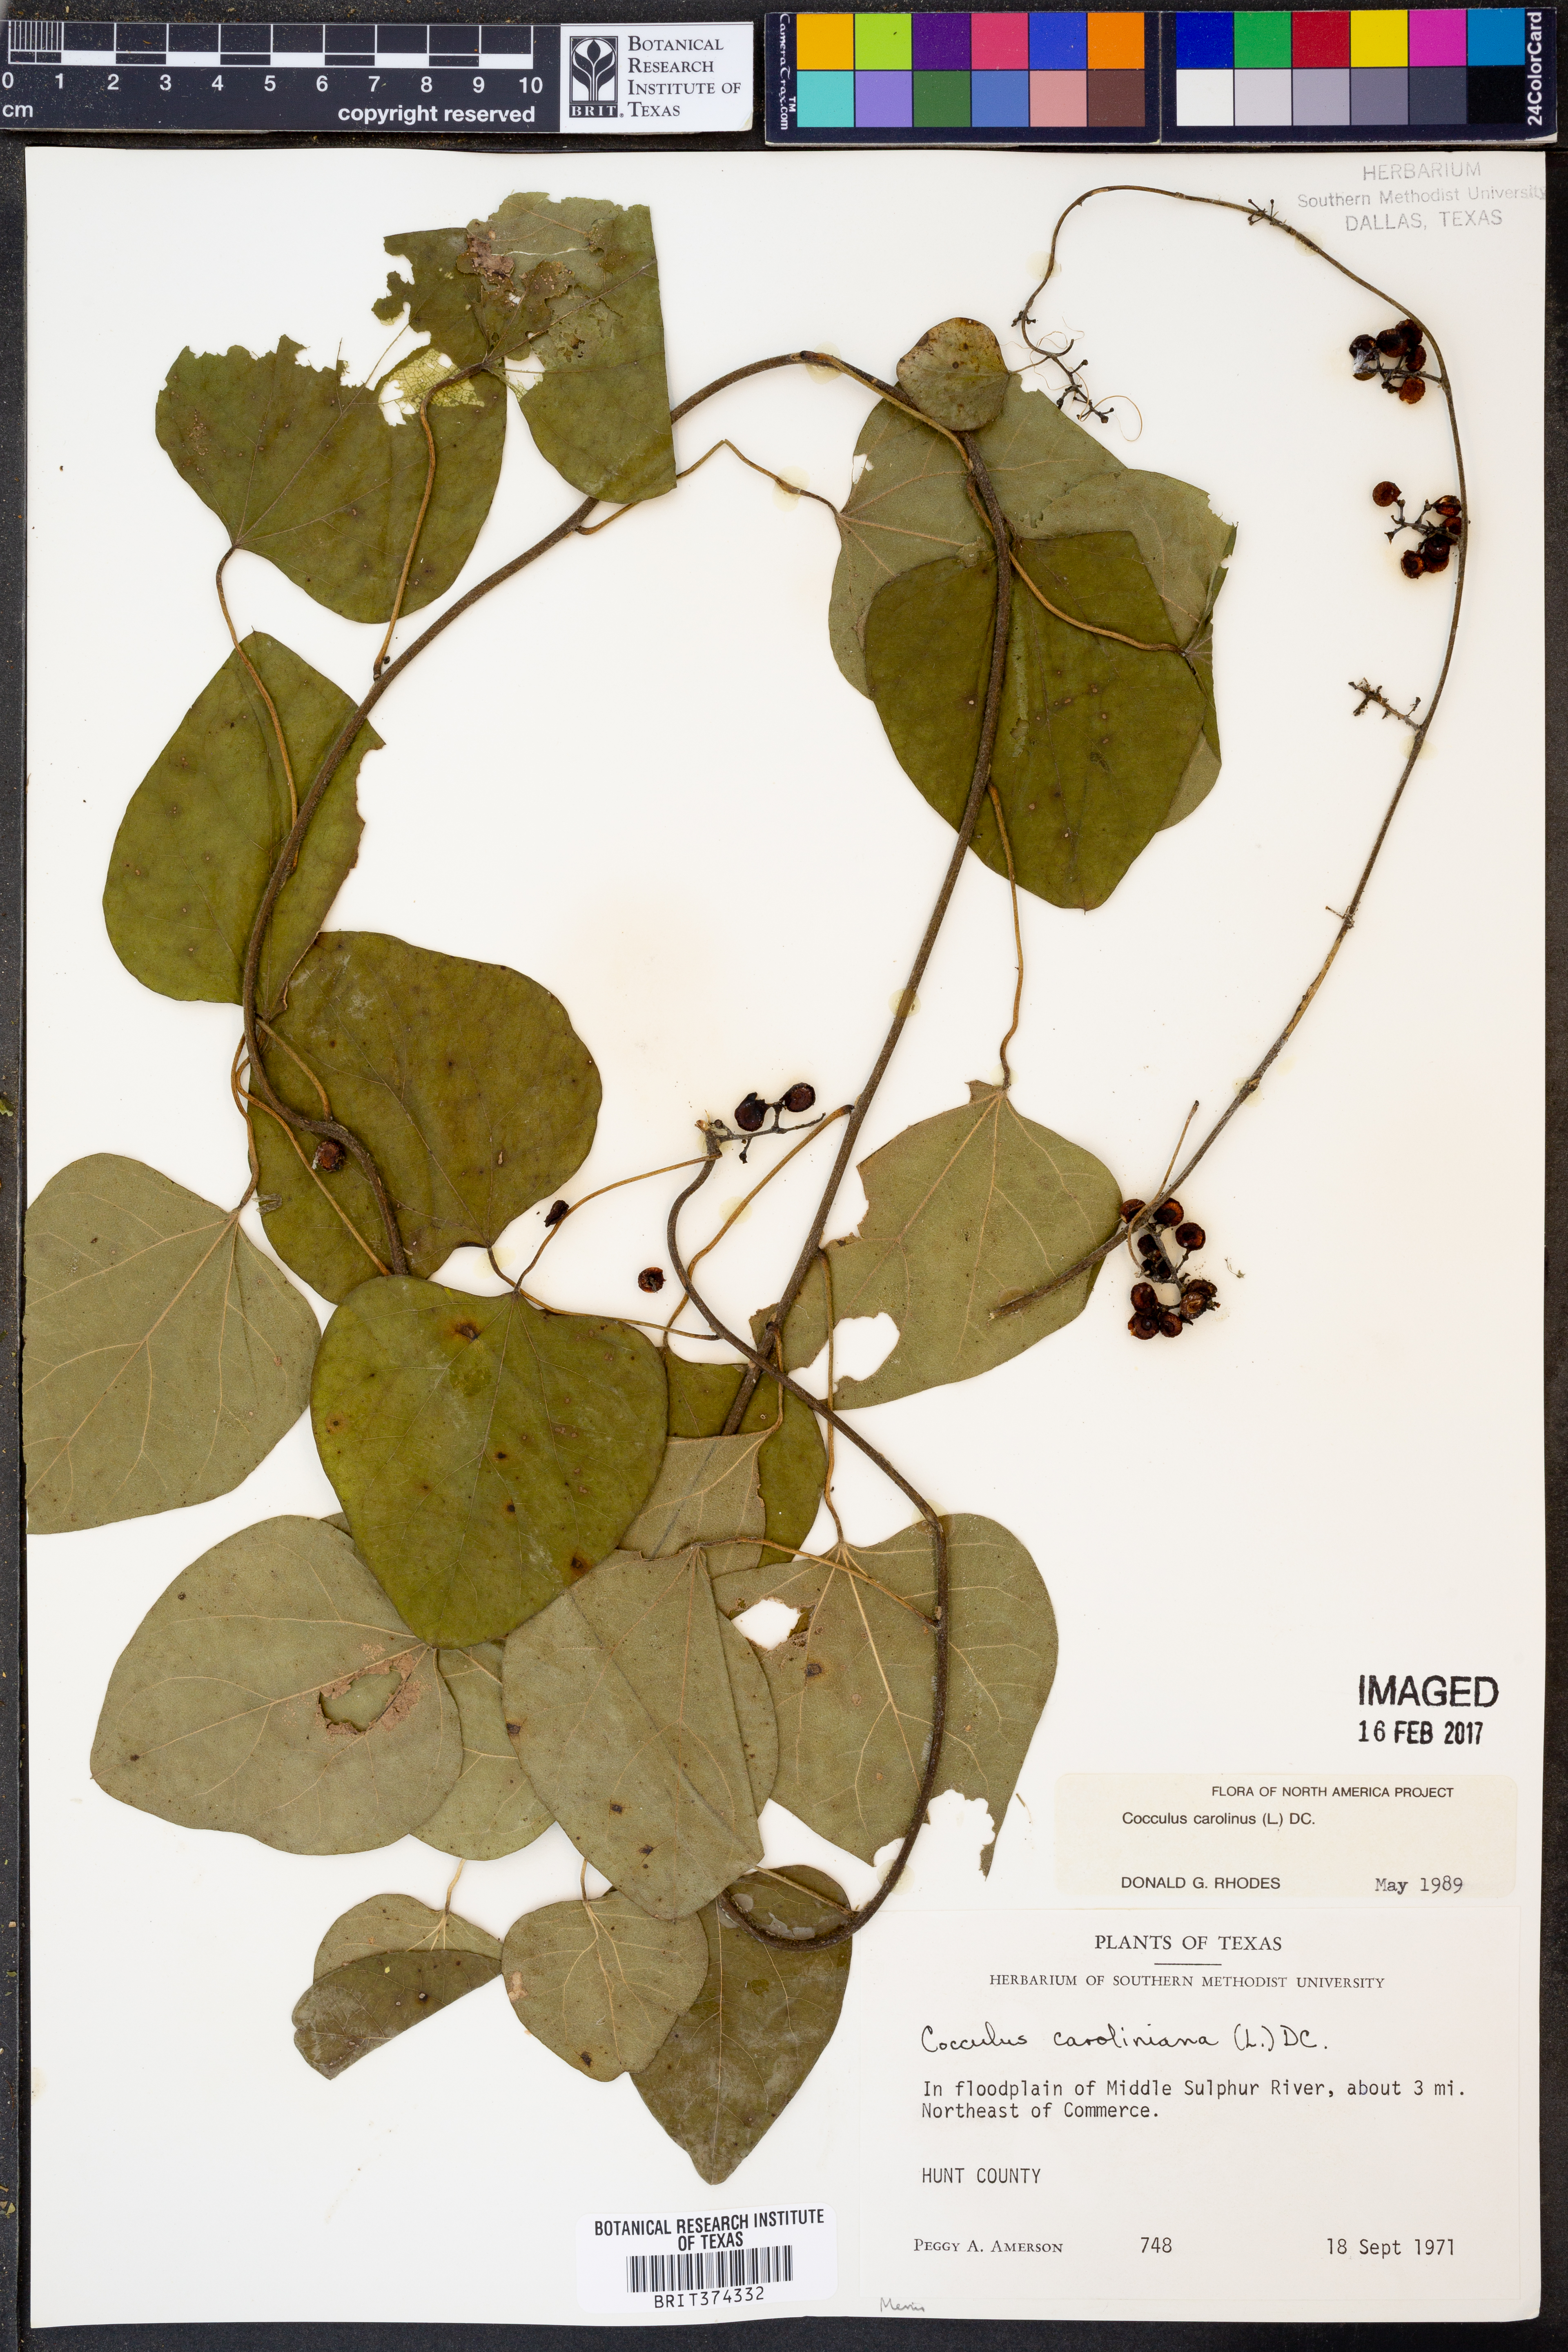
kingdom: Plantae
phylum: Tracheophyta
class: Magnoliopsida
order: Ranunculales
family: Menispermaceae
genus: Cocculus
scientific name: Cocculus carolinus
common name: Carolina moonseed
